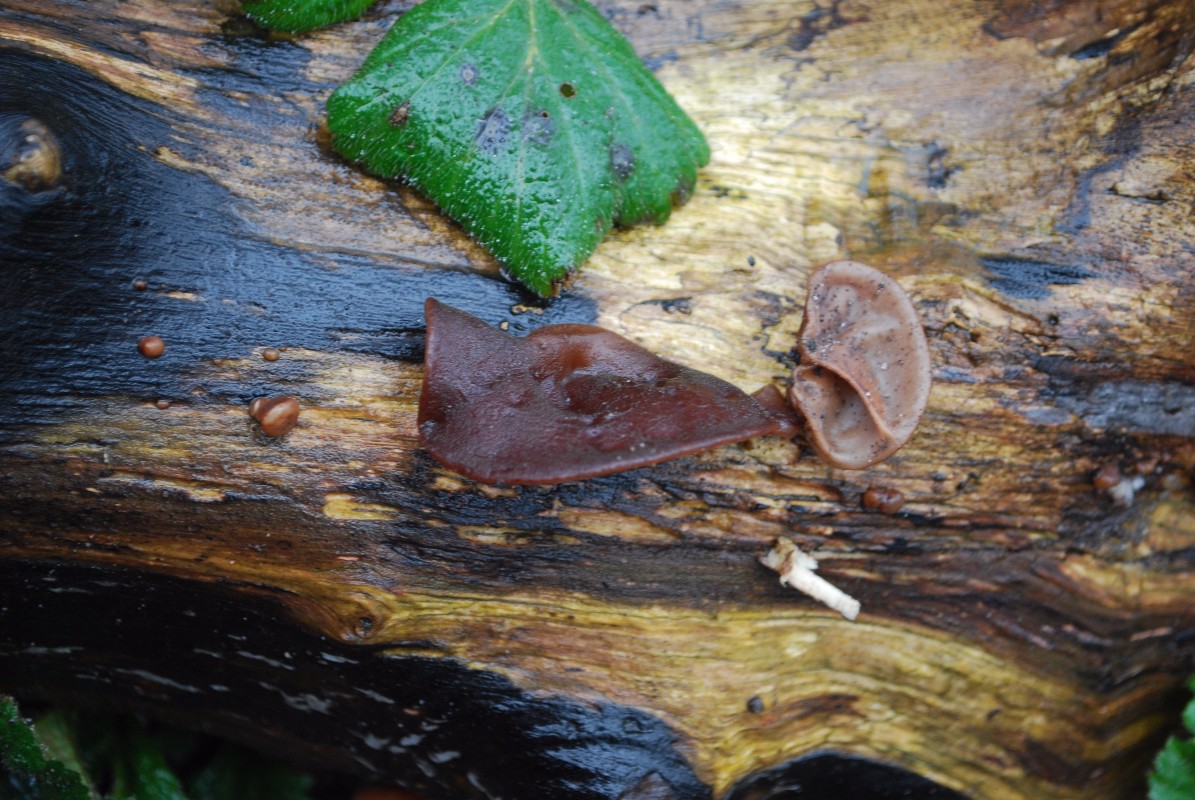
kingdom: Fungi
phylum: Basidiomycota
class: Agaricomycetes
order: Auriculariales
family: Auriculariaceae
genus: Auricularia
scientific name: Auricularia auricula-judae
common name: almindelig judasøre
